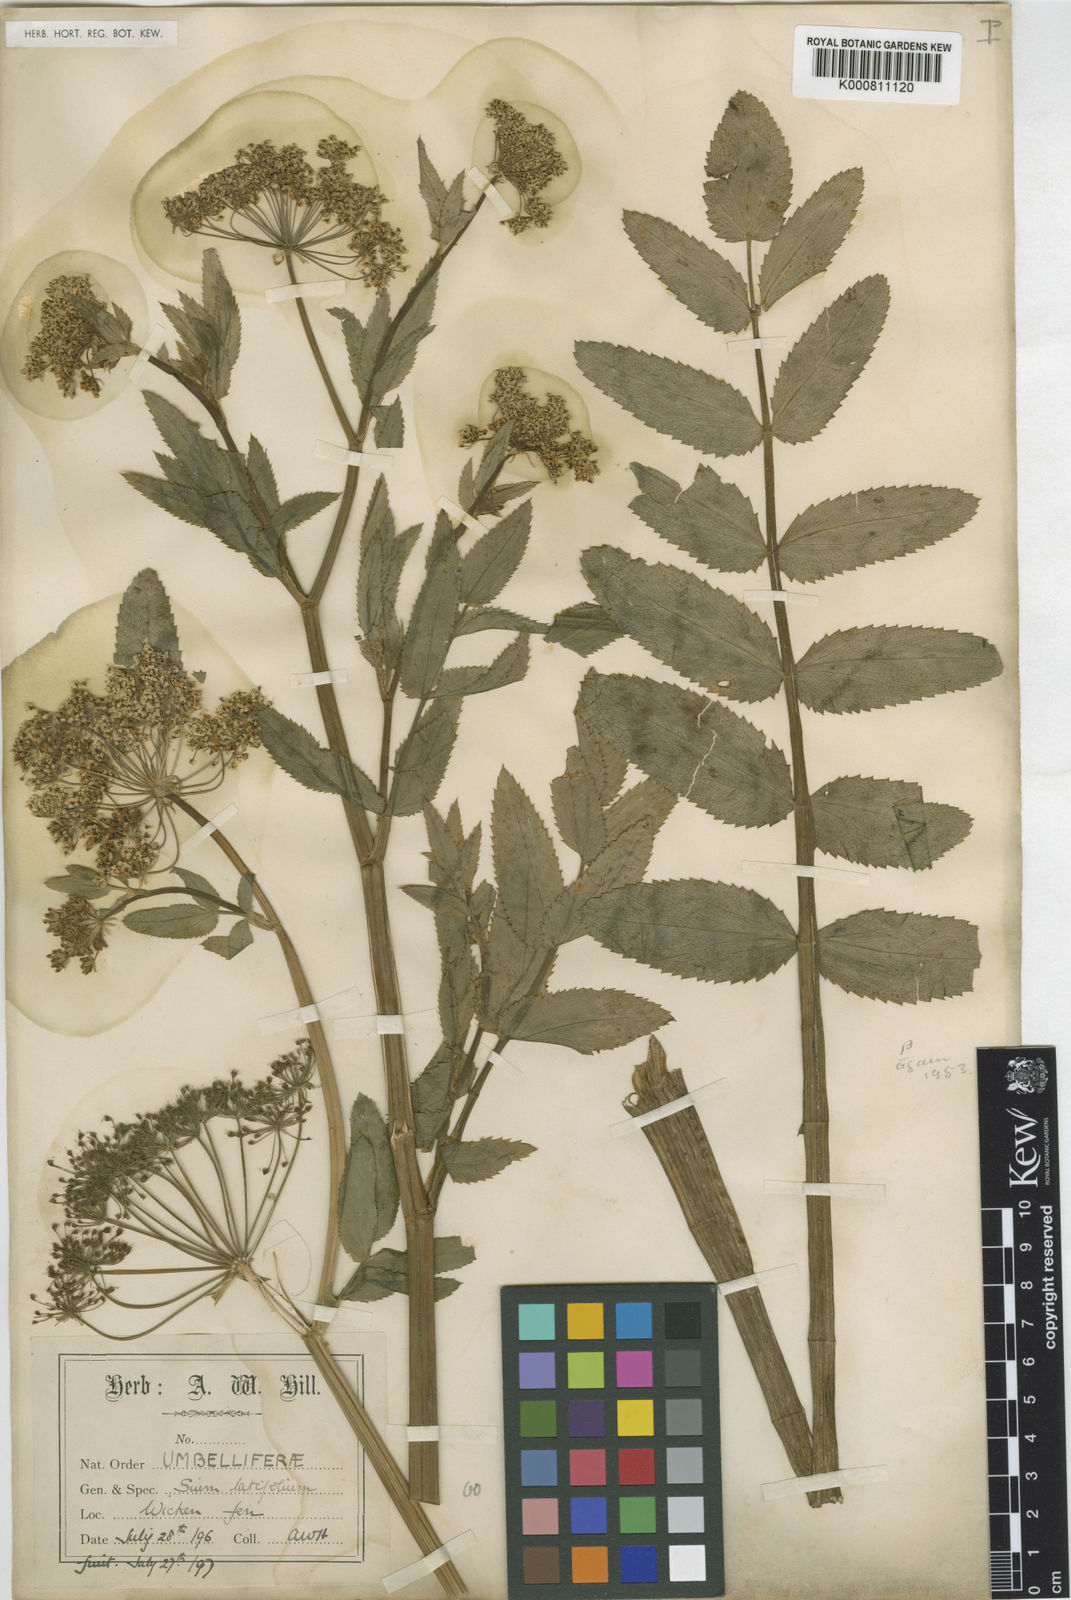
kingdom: Plantae
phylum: Tracheophyta
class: Magnoliopsida
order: Apiales
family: Apiaceae
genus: Sium
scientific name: Sium latifolium
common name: Greater water-parsnip
